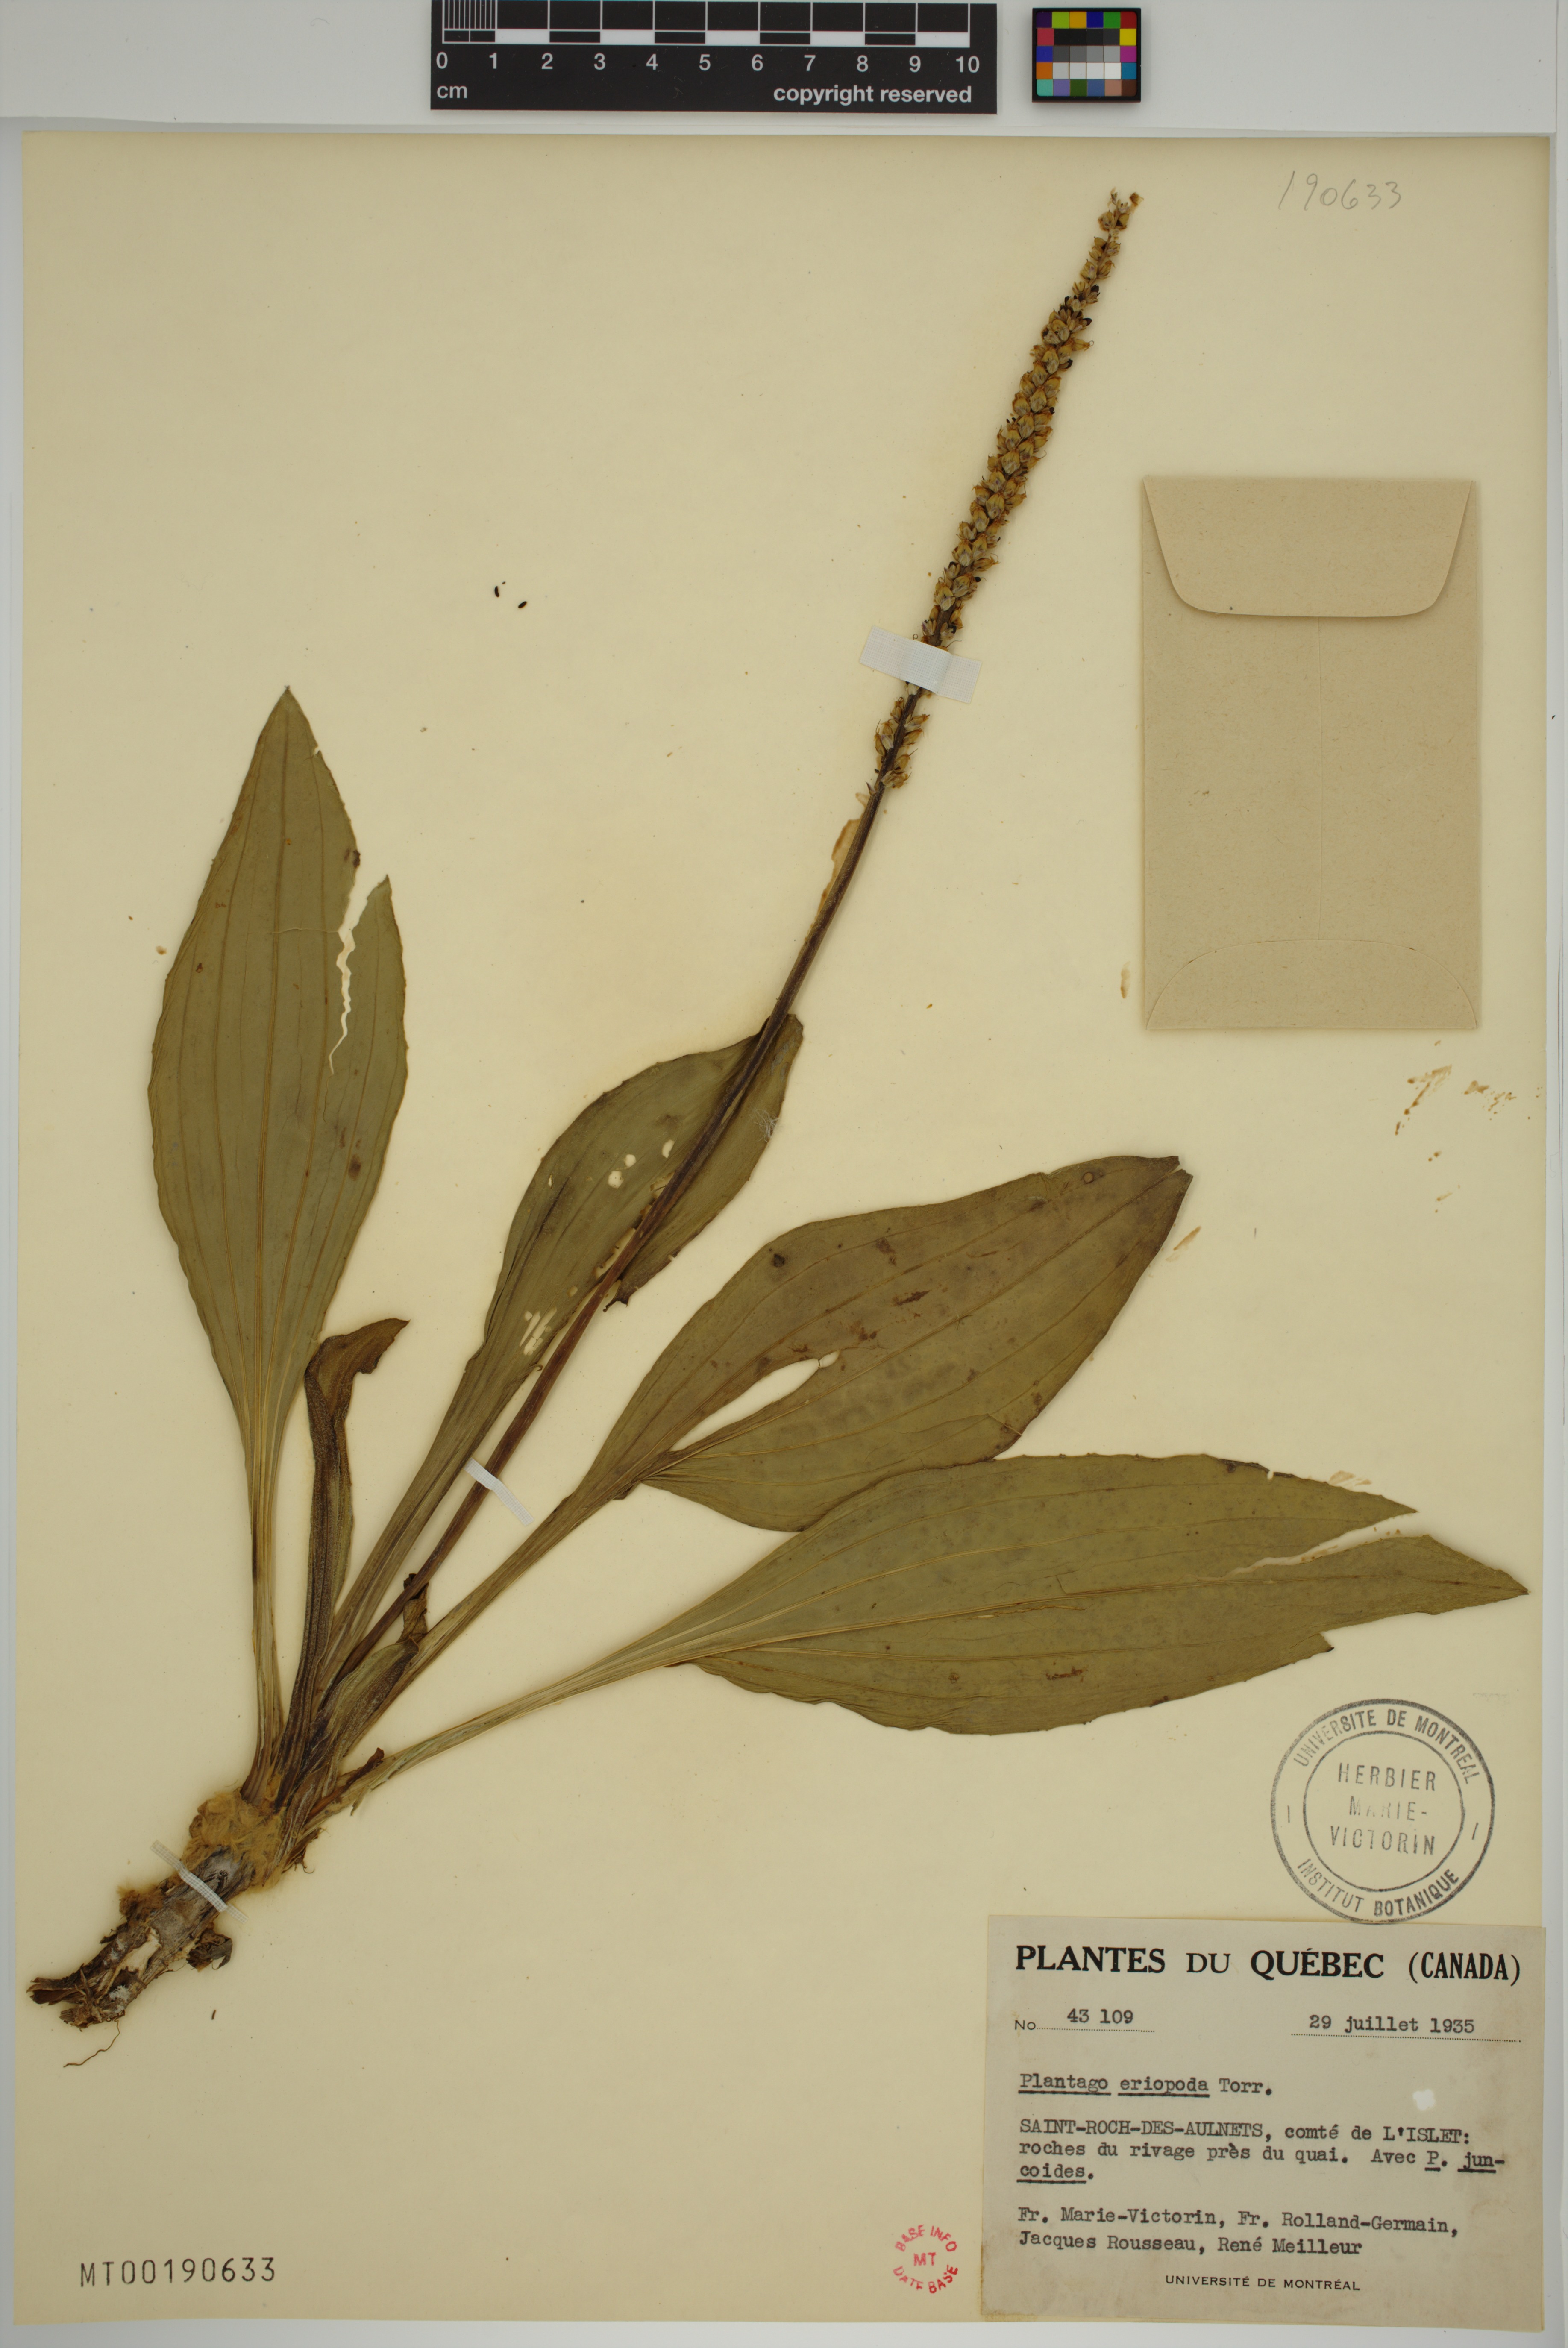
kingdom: Plantae
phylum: Tracheophyta
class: Magnoliopsida
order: Lamiales
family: Plantaginaceae
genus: Plantago
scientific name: Plantago eriopoda
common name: Alkali plantain
